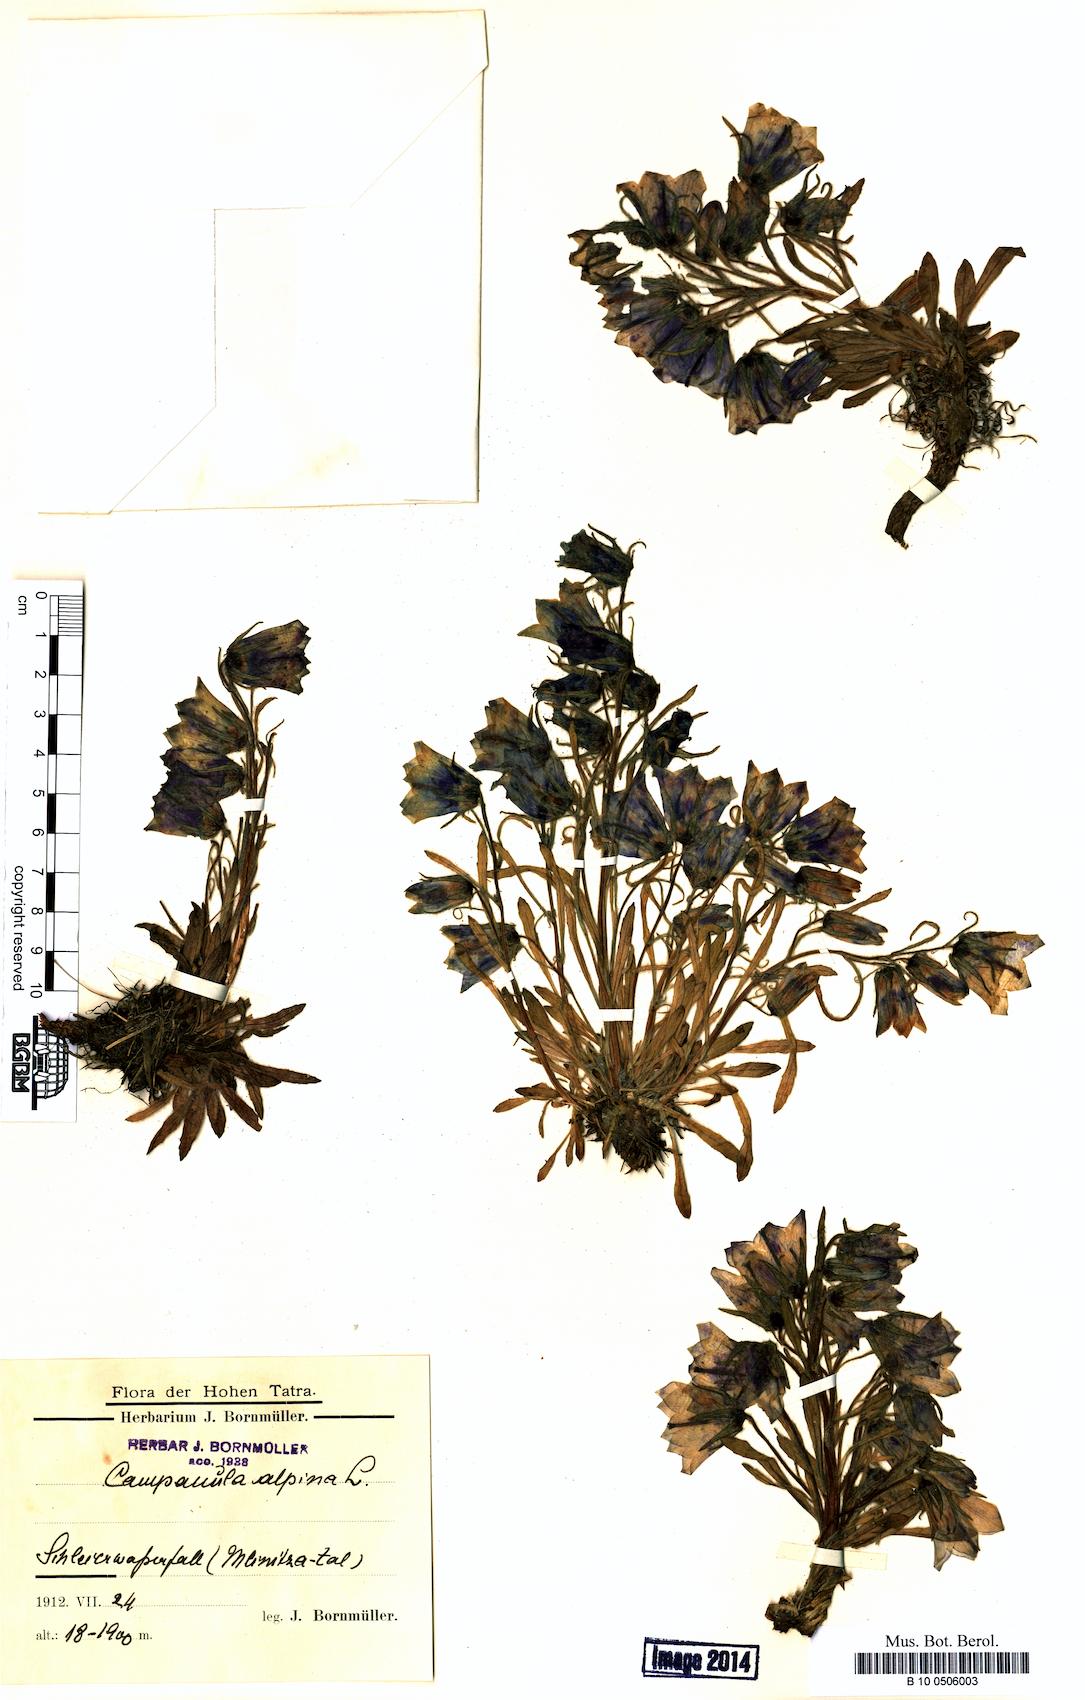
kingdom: Plantae
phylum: Tracheophyta
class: Magnoliopsida
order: Asterales
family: Campanulaceae
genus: Campanula
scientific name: Campanula alpina
